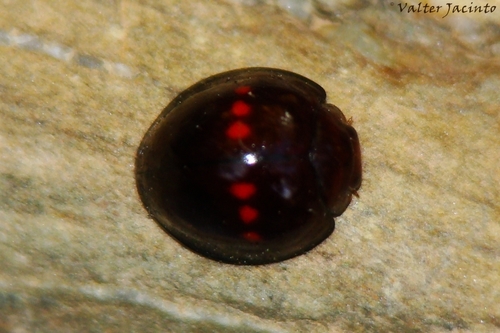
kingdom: Animalia
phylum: Arthropoda
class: Insecta
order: Coleoptera
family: Coccinellidae
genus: Chilocorus
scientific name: Chilocorus bipustulatus
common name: Heather ladybird
